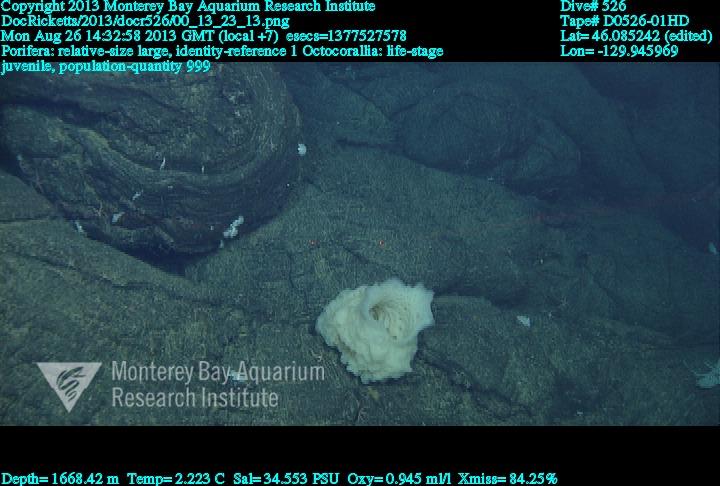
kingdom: Animalia
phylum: Porifera
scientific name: Porifera
